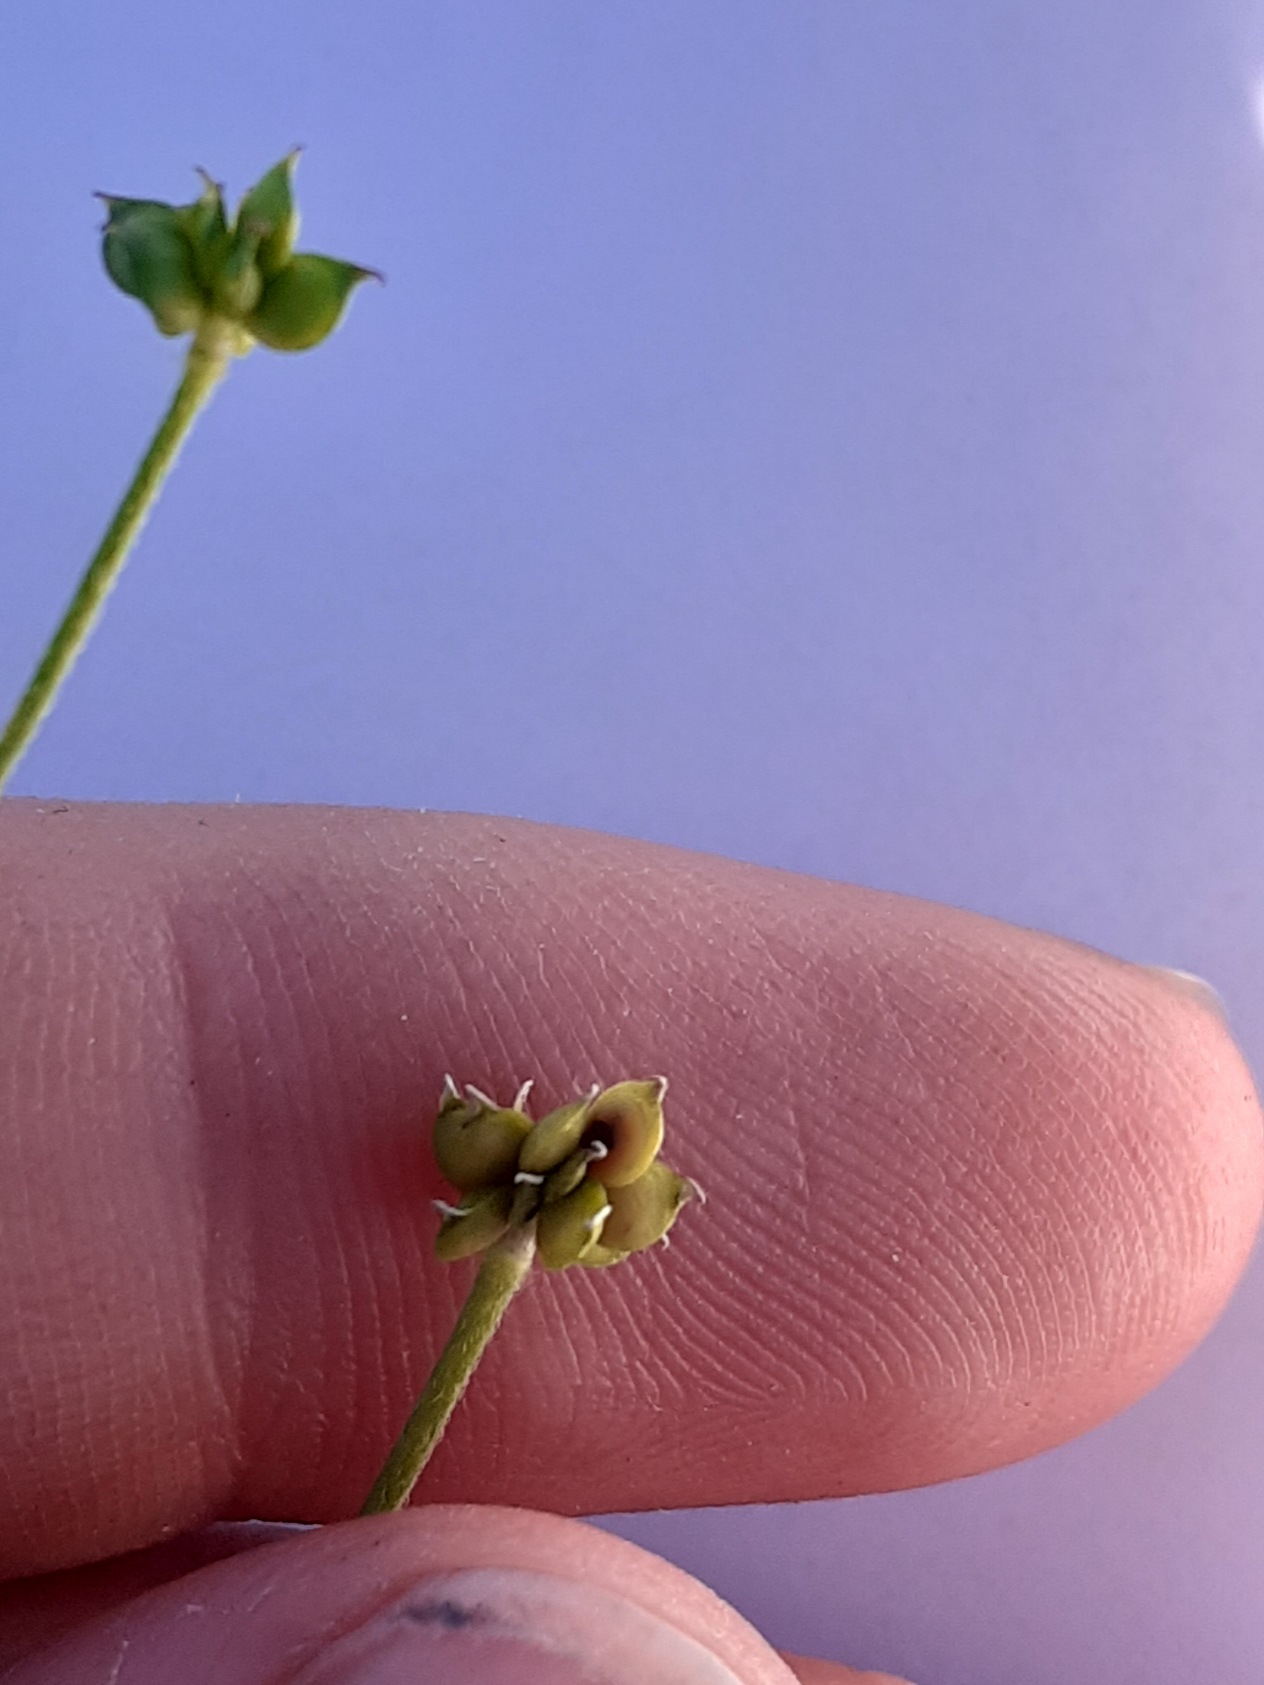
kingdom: Plantae
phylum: Tracheophyta
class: Magnoliopsida
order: Ranunculales
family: Ranunculaceae
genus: Ranunculus
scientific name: Ranunculus acris
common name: Bidende ranunkel
